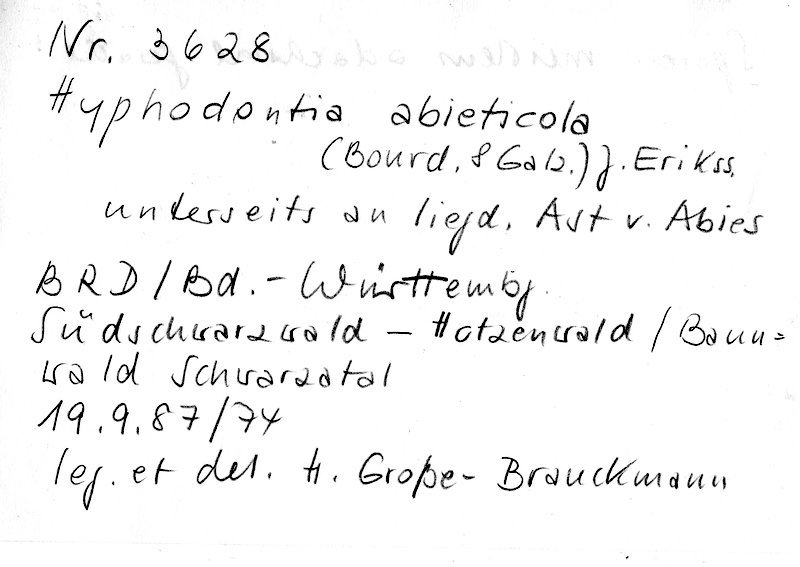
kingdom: Fungi
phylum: Basidiomycota
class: Agaricomycetes
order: Hymenochaetales
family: Hyphodontiaceae
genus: Hyphodontia
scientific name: Hyphodontia abieticola
